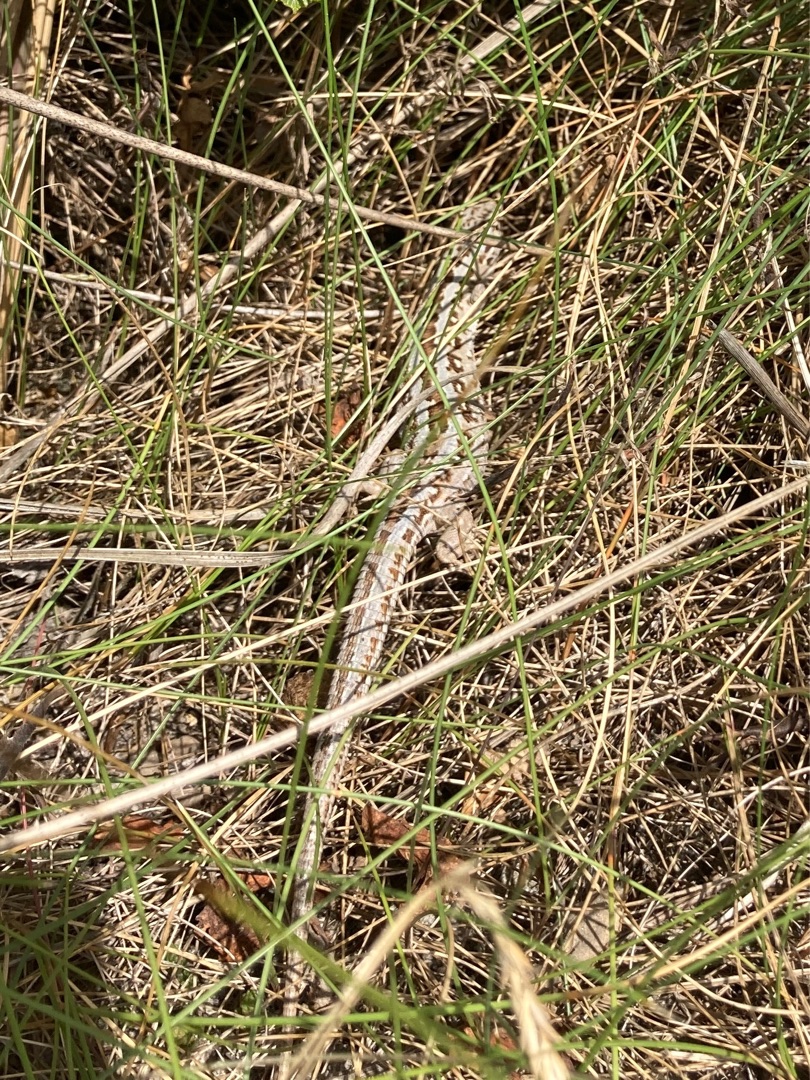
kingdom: Animalia
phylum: Chordata
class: Squamata
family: Lacertidae
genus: Lacerta
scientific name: Lacerta agilis
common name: Markfirben
